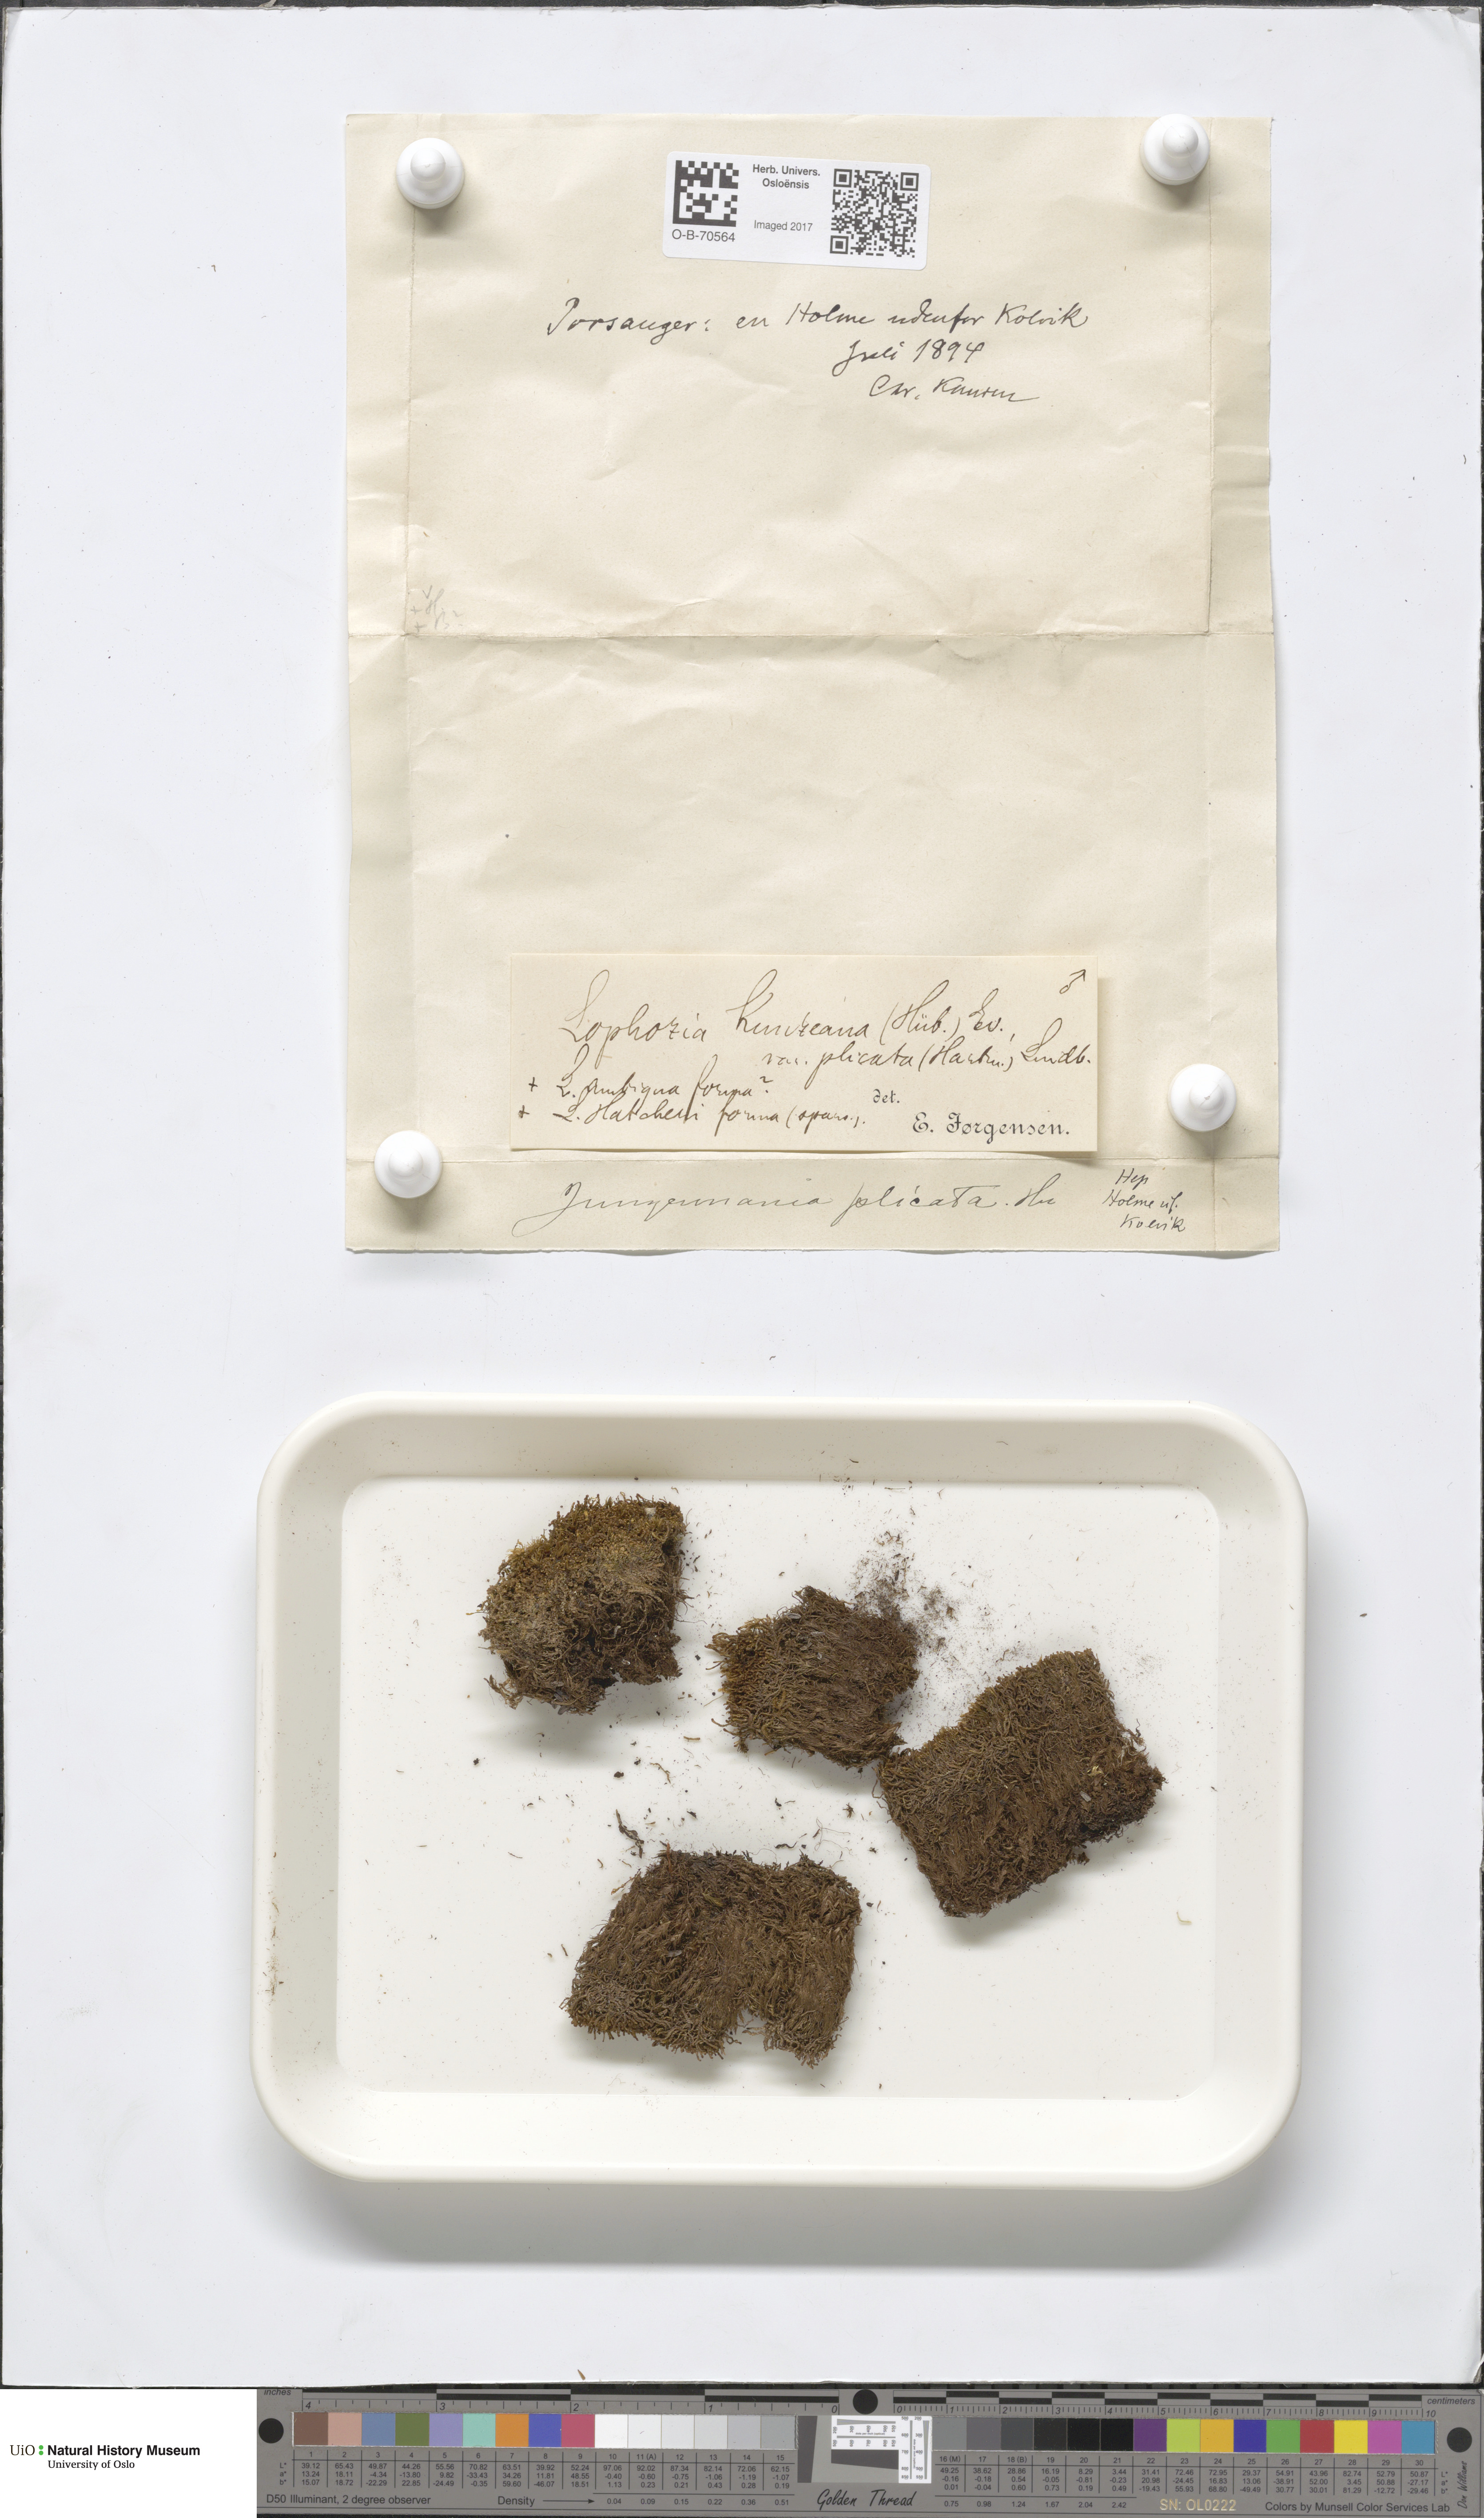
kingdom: Plantae
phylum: Marchantiophyta
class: Jungermanniopsida
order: Jungermanniales
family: Anastrophyllaceae
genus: Schljakovia
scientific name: Schljakovia kunzeana
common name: Kunze's pawwort
